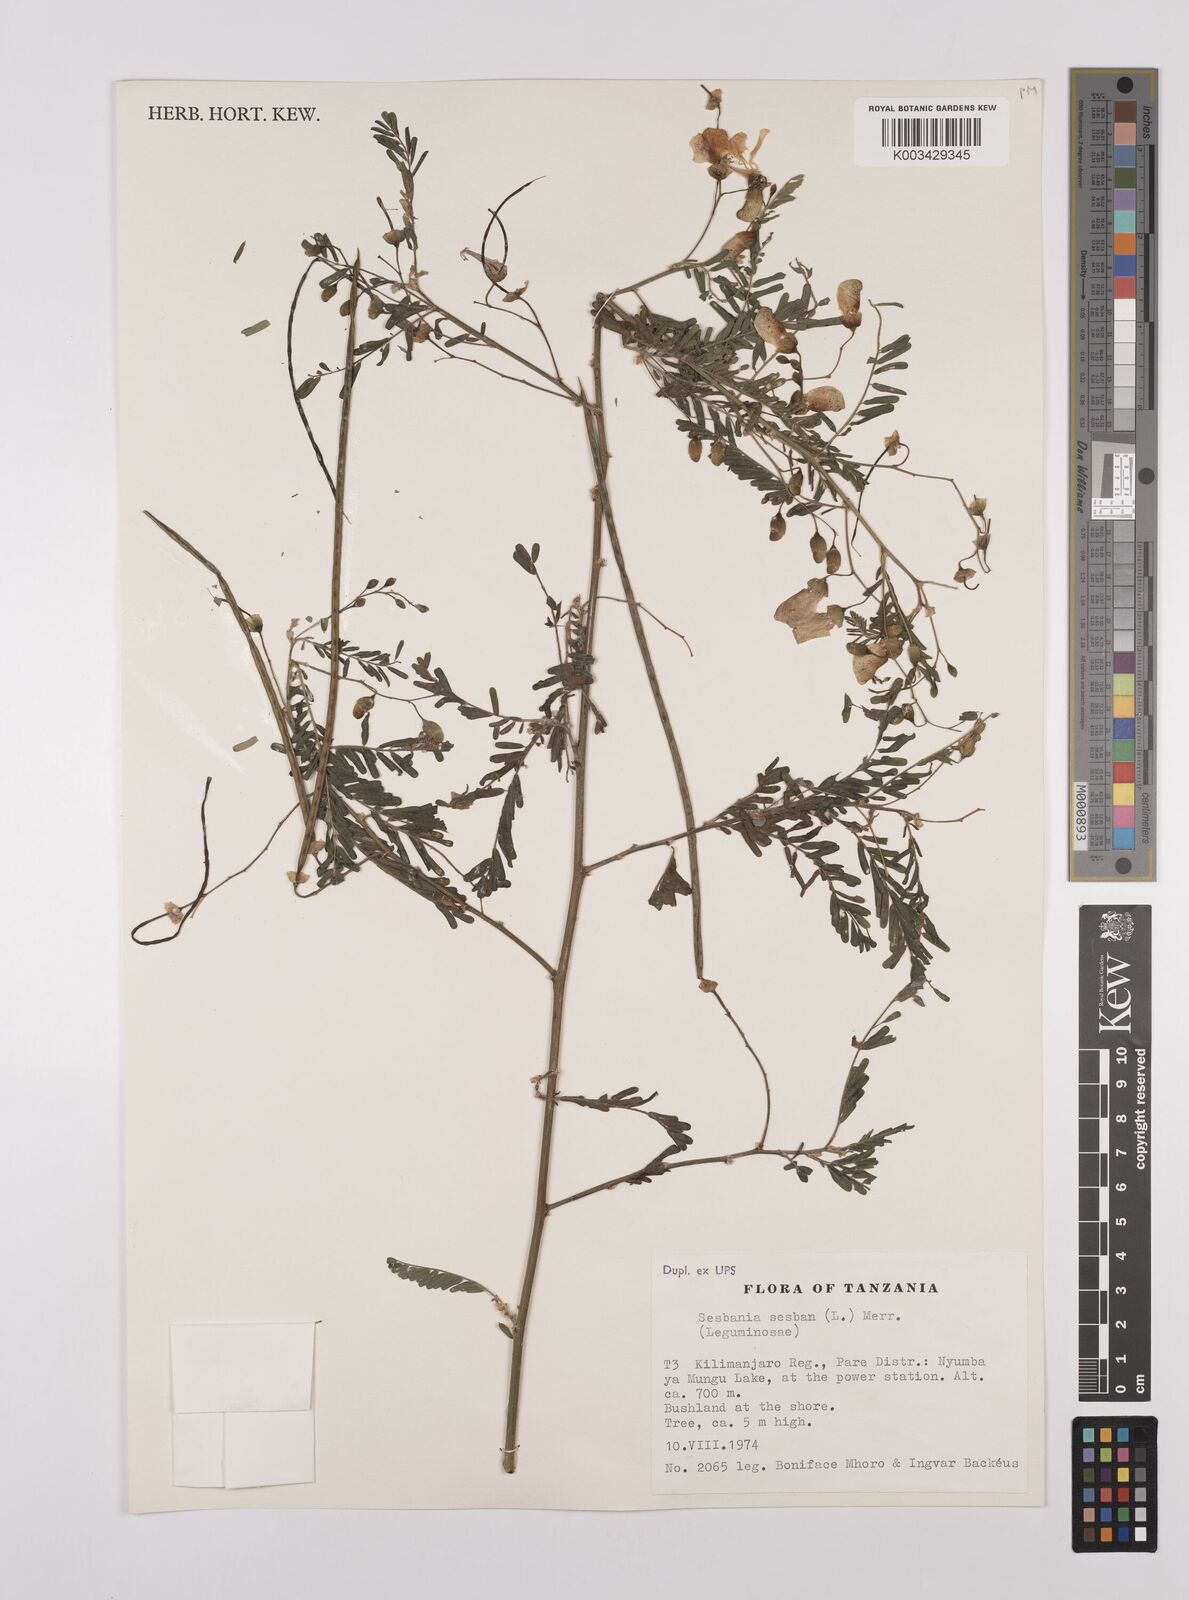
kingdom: Plantae
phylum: Tracheophyta
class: Magnoliopsida
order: Fabales
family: Fabaceae
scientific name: Fabaceae
